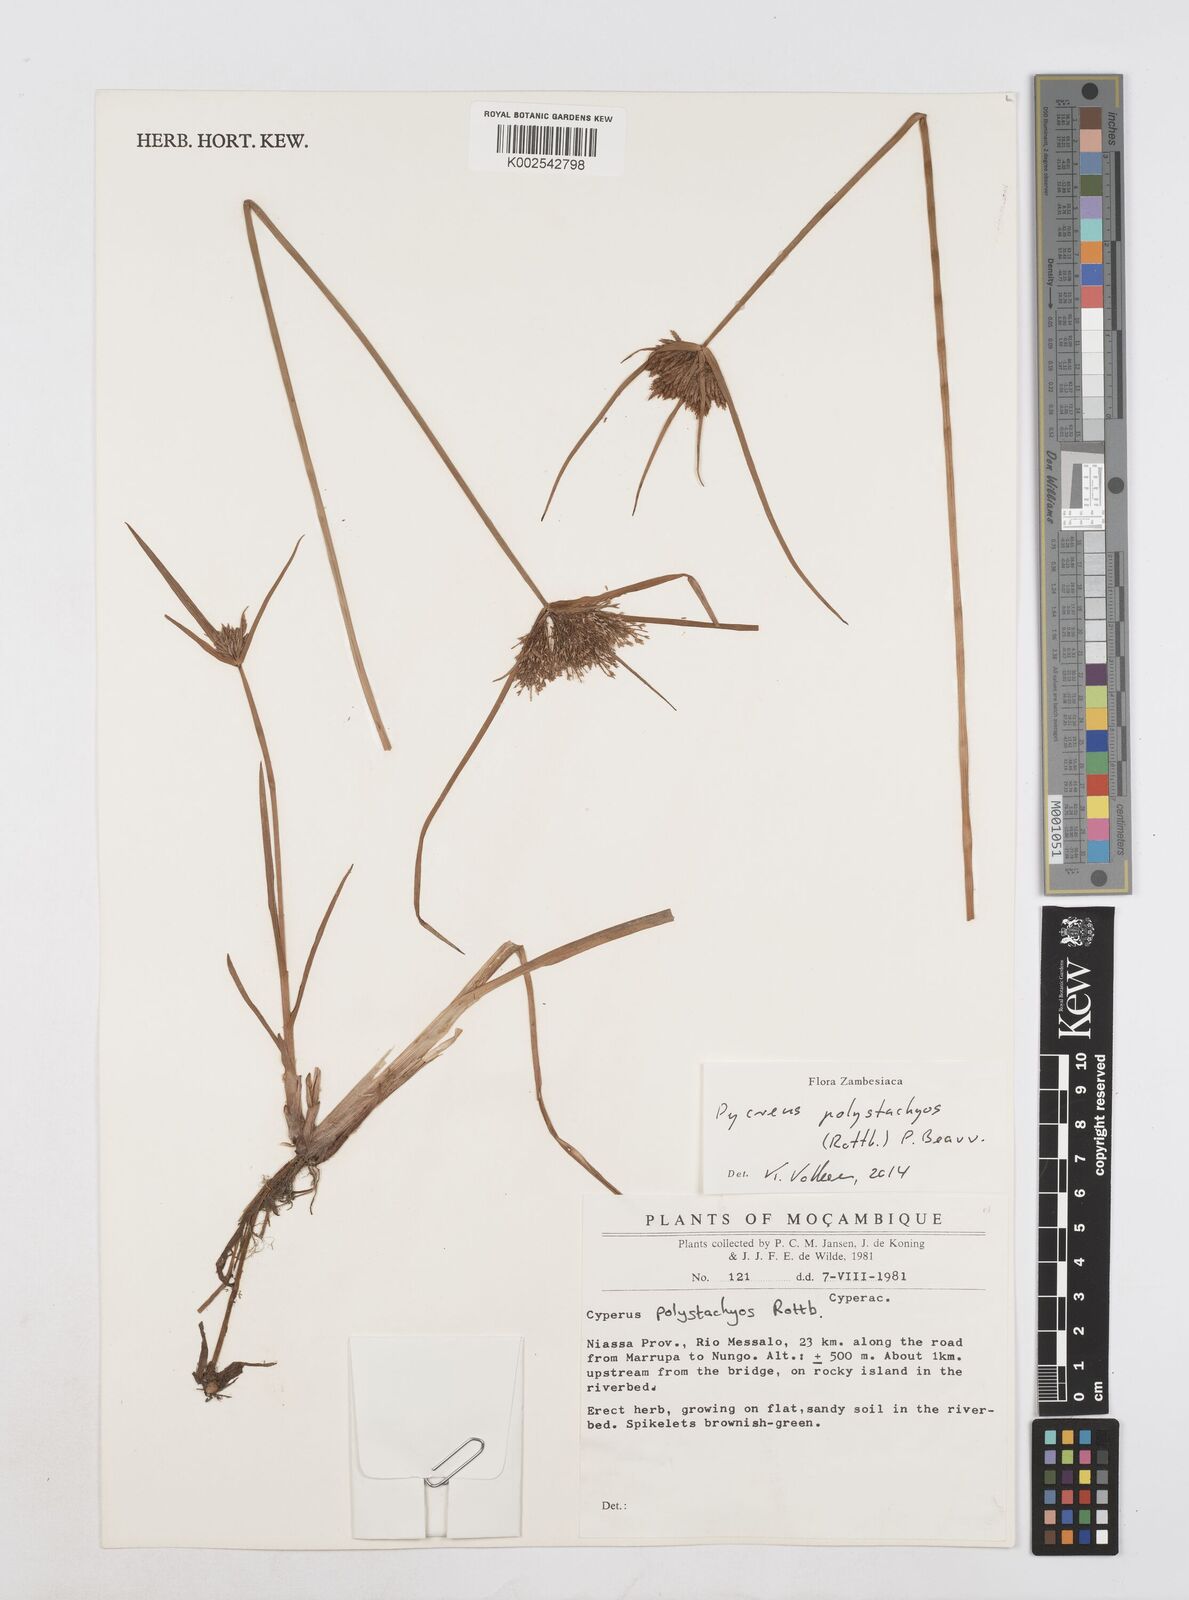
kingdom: Plantae
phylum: Tracheophyta
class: Liliopsida
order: Poales
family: Cyperaceae
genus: Cyperus
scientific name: Cyperus polystachyos
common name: Bunchy flat sedge
